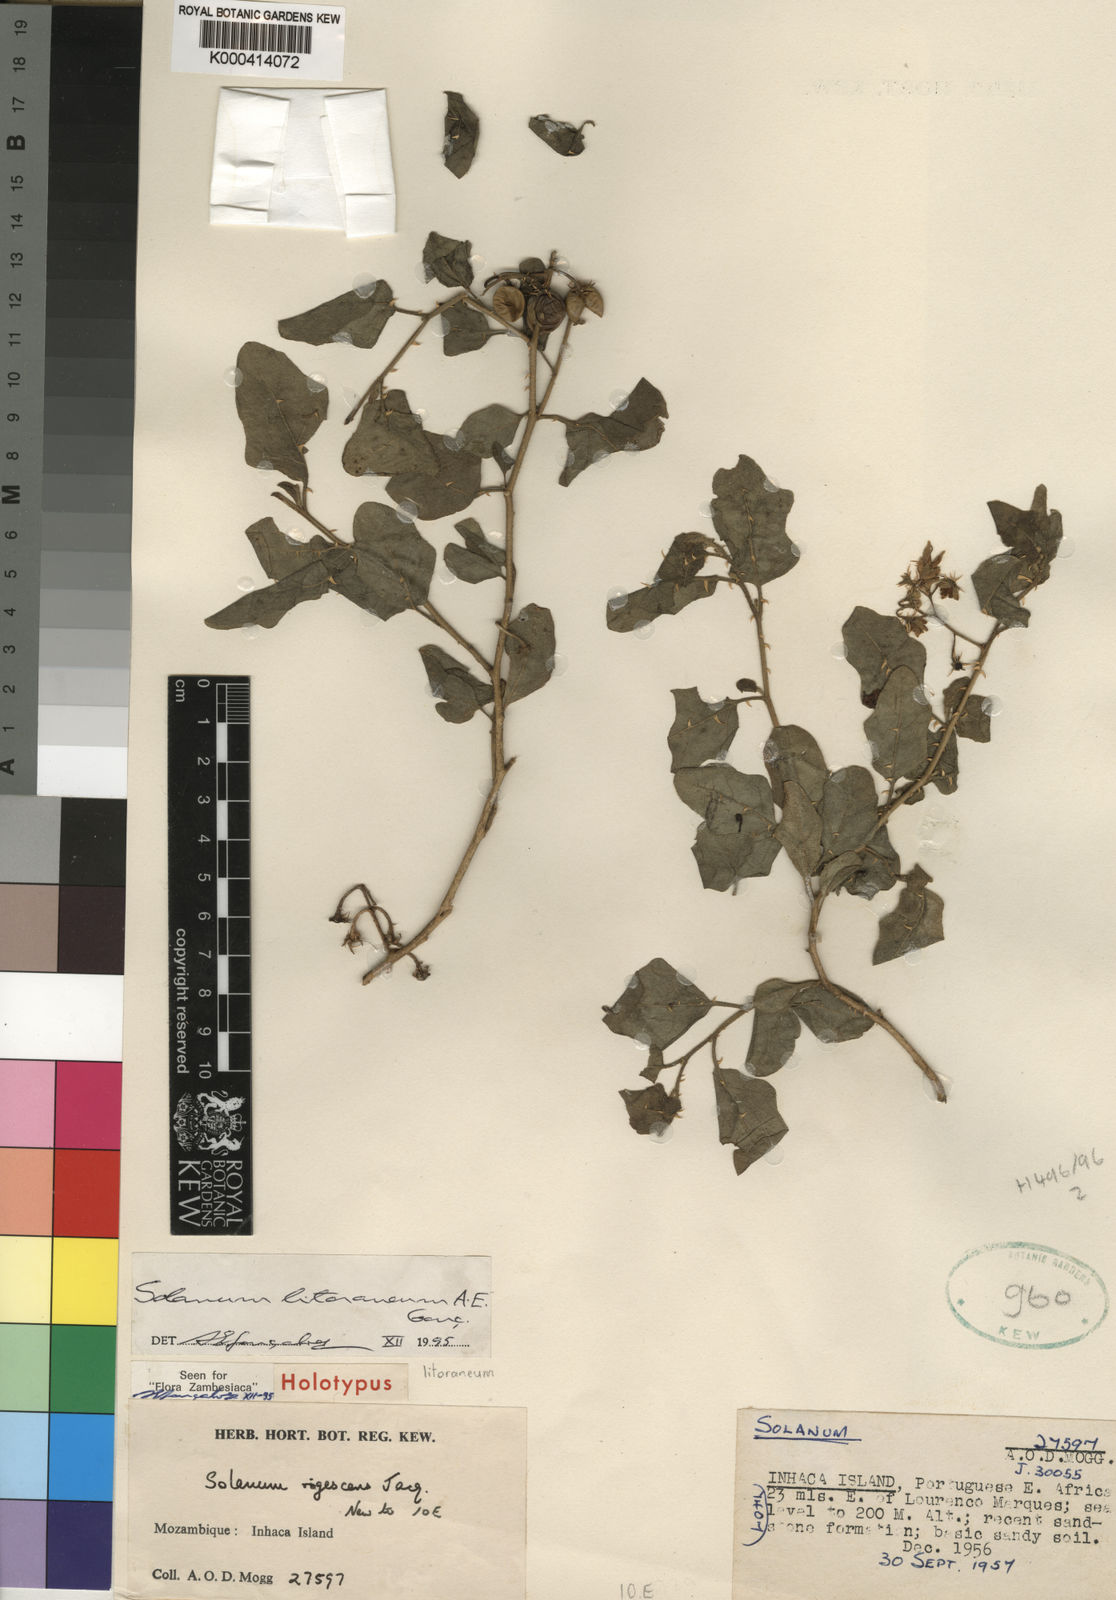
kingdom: Plantae
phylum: Tracheophyta
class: Magnoliopsida
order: Solanales
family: Solanaceae
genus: Solanum
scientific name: Solanum
